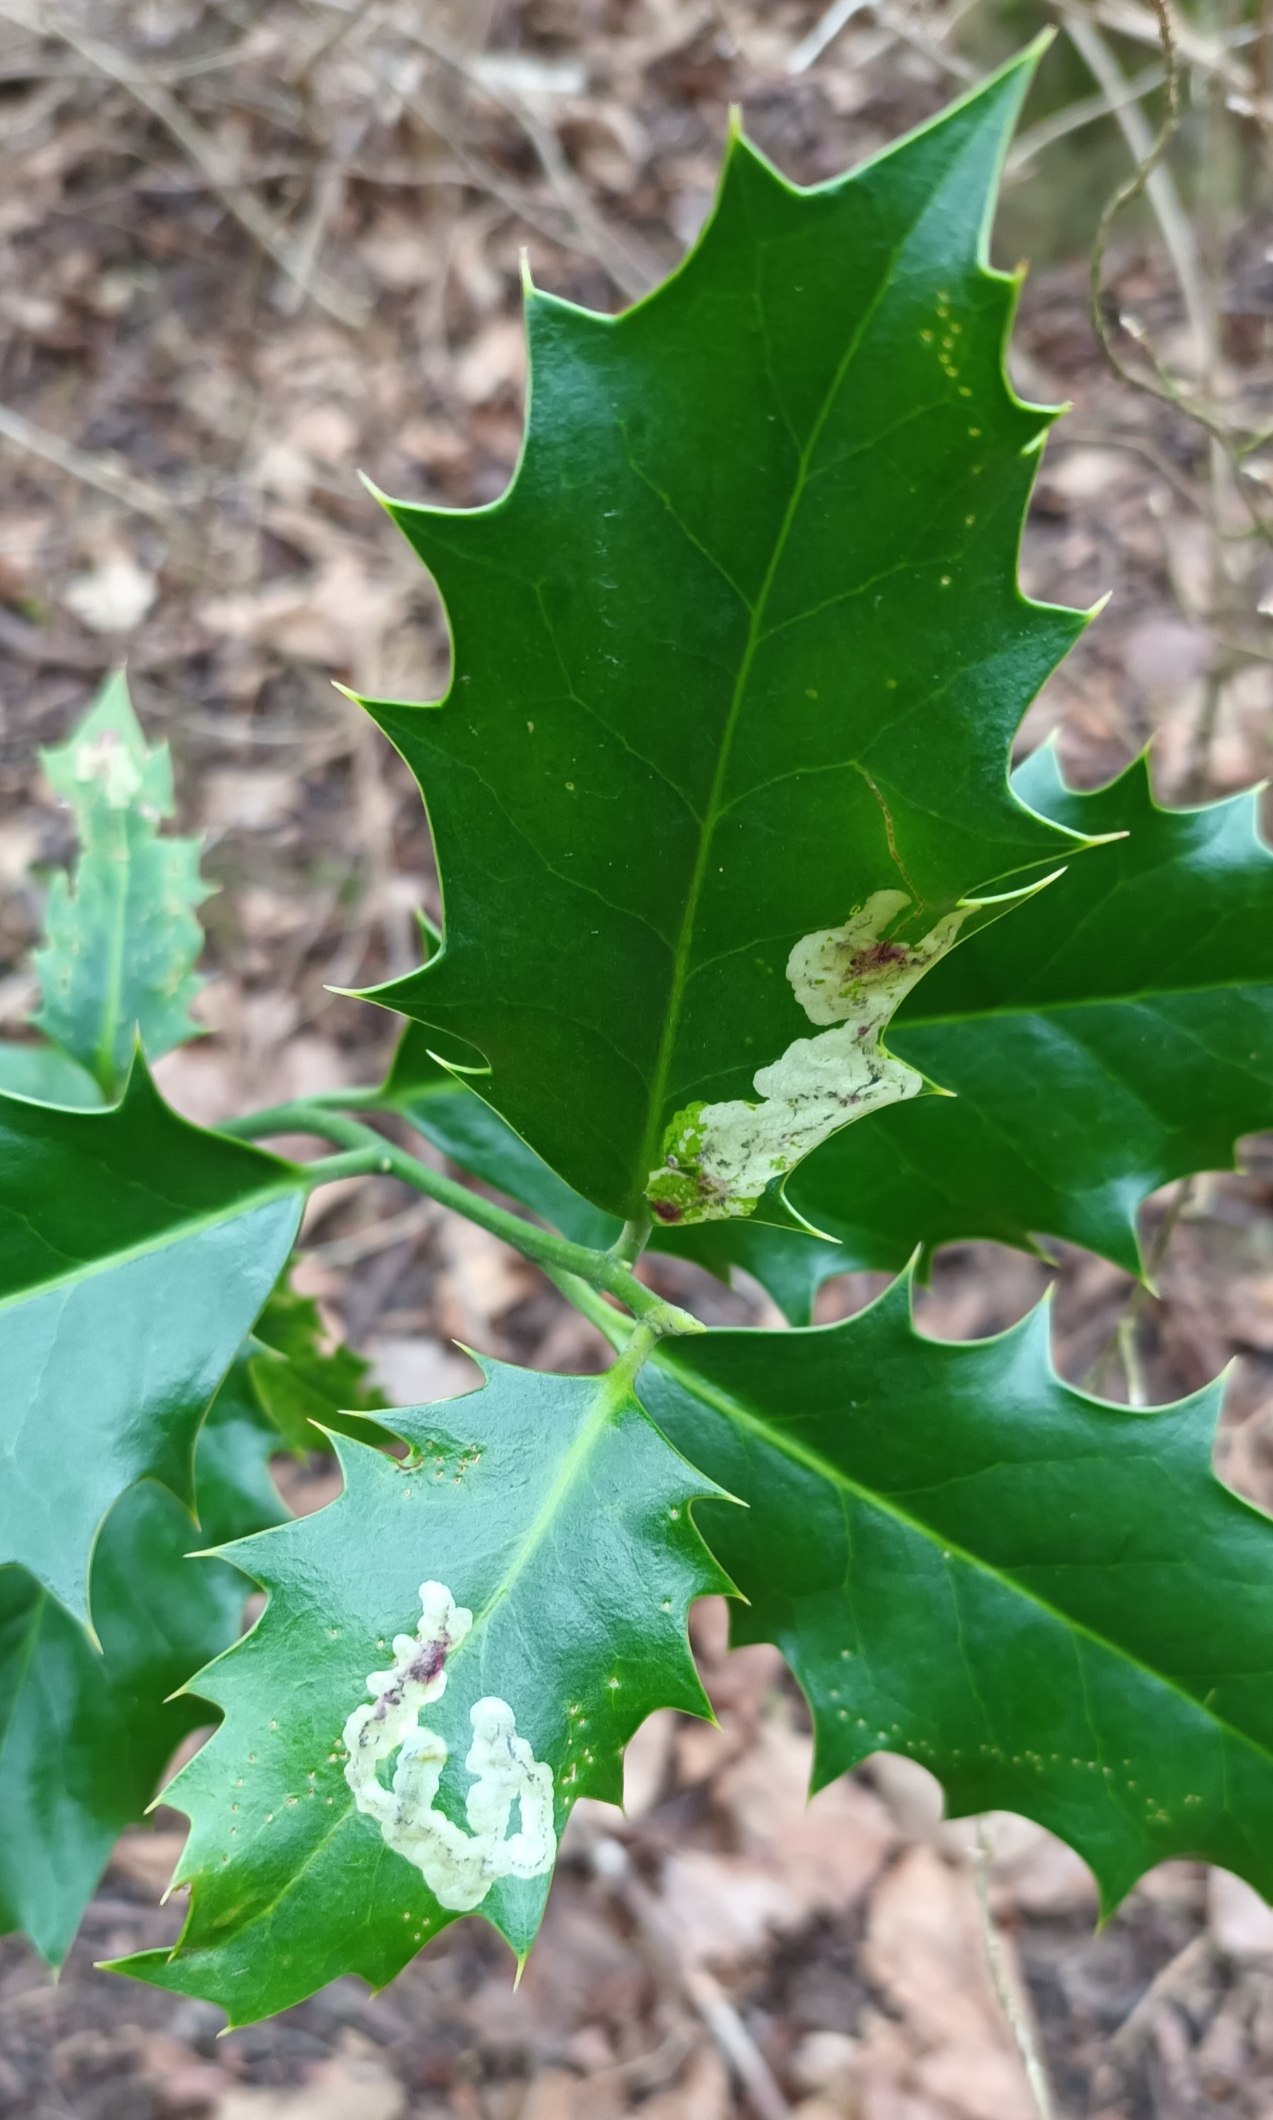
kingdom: Animalia
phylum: Arthropoda
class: Insecta
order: Diptera
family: Agromyzidae
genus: Phytomyza
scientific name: Phytomyza ilicis
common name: Kristtornminérflue
